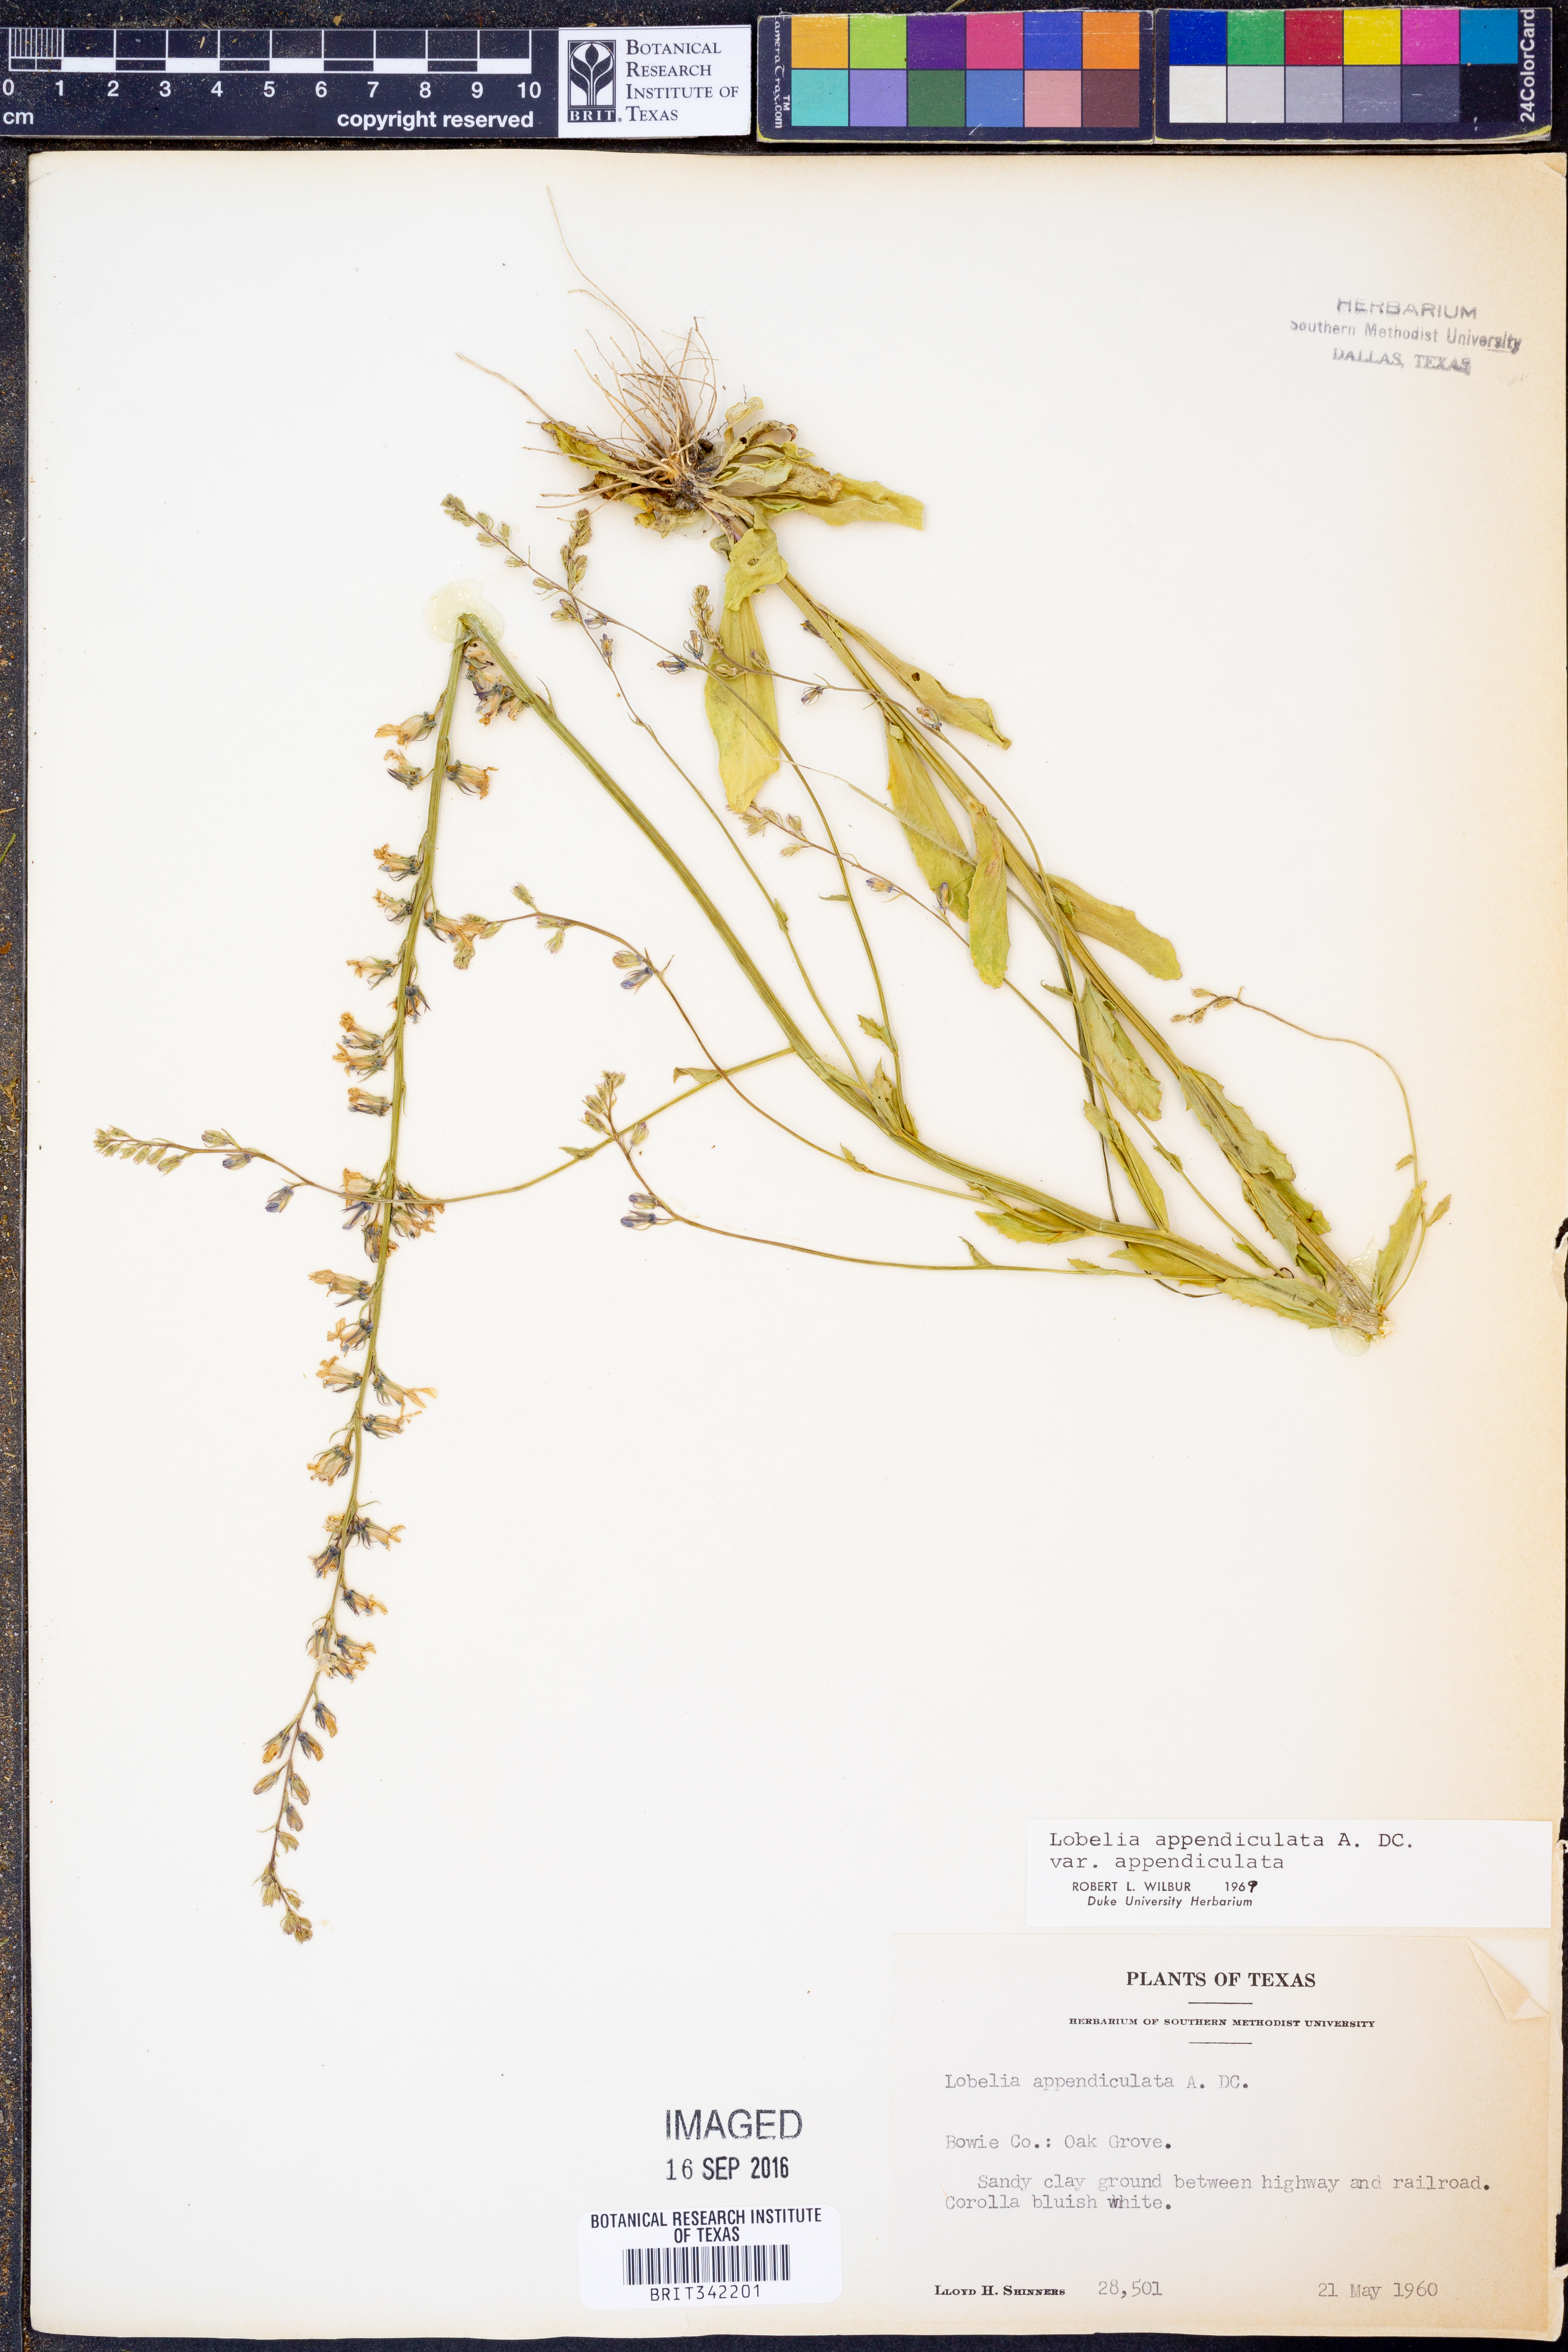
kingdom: Plantae
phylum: Tracheophyta
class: Magnoliopsida
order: Asterales
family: Campanulaceae
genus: Lobelia
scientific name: Lobelia appendiculata
